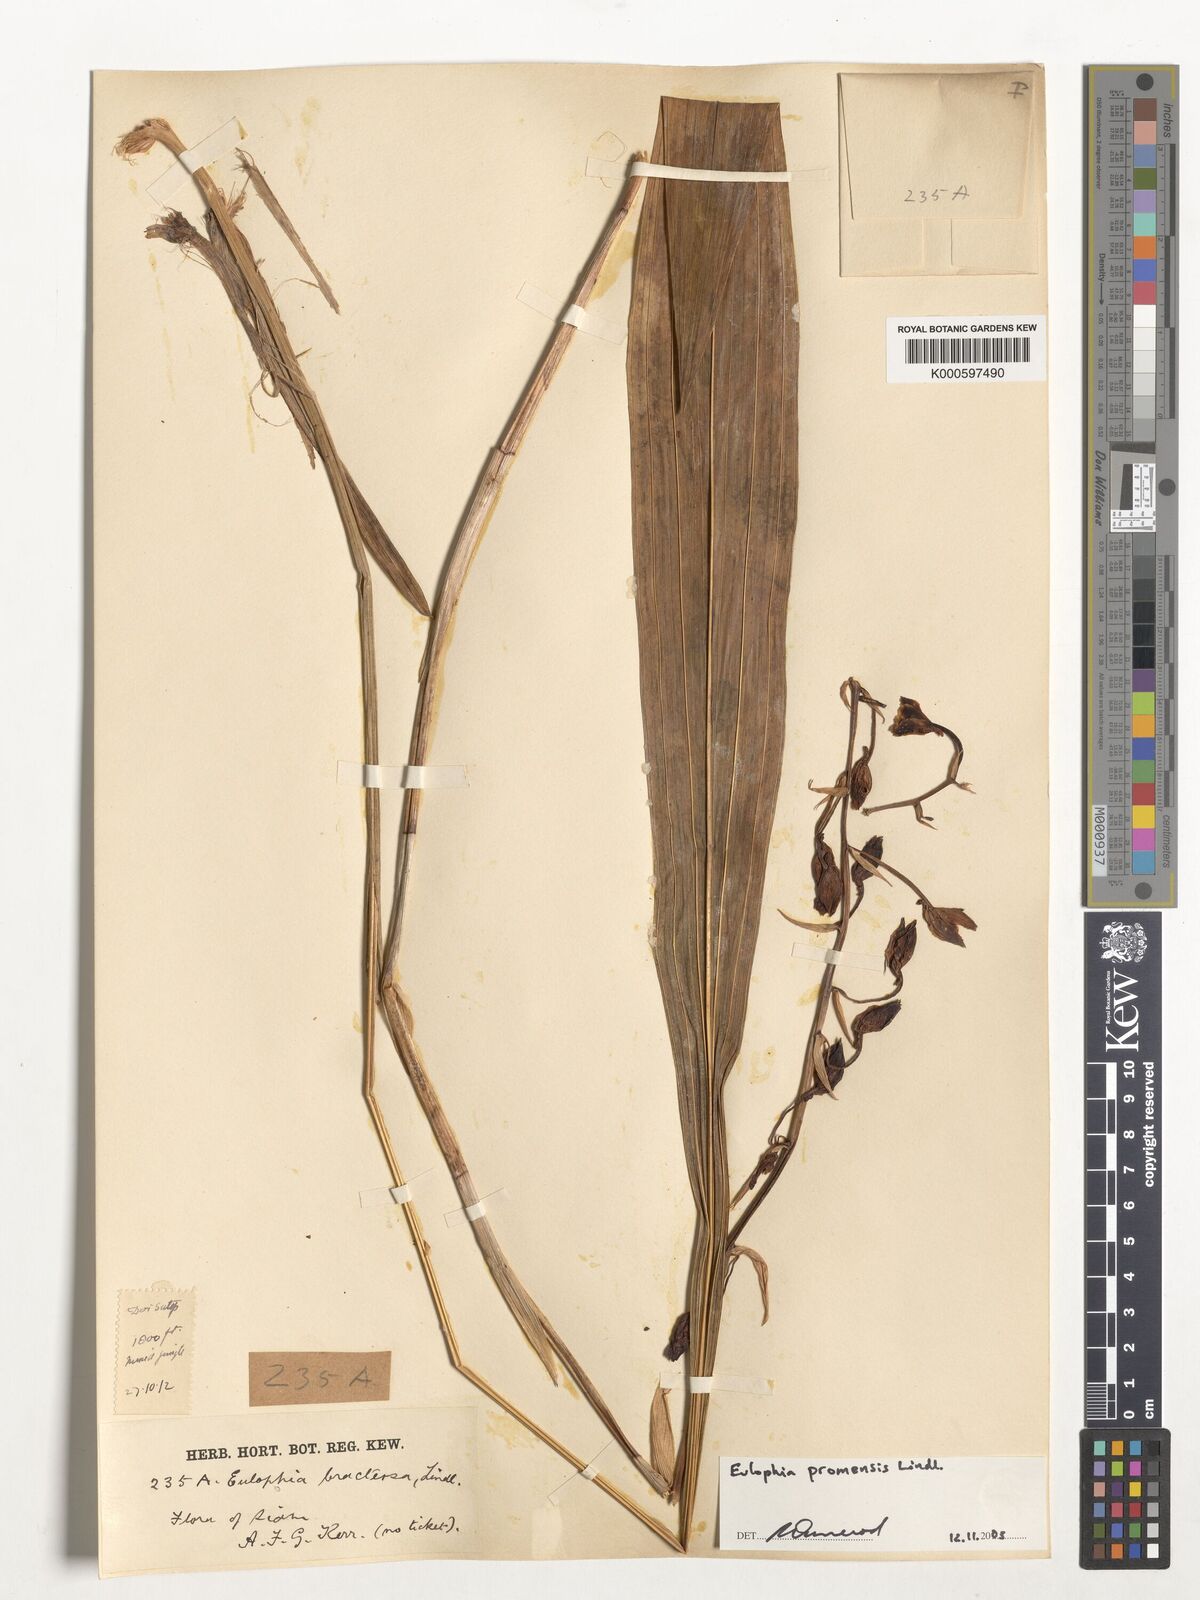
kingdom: Plantae
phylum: Tracheophyta
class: Liliopsida
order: Asparagales
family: Orchidaceae
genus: Eulophia
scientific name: Eulophia promensis
